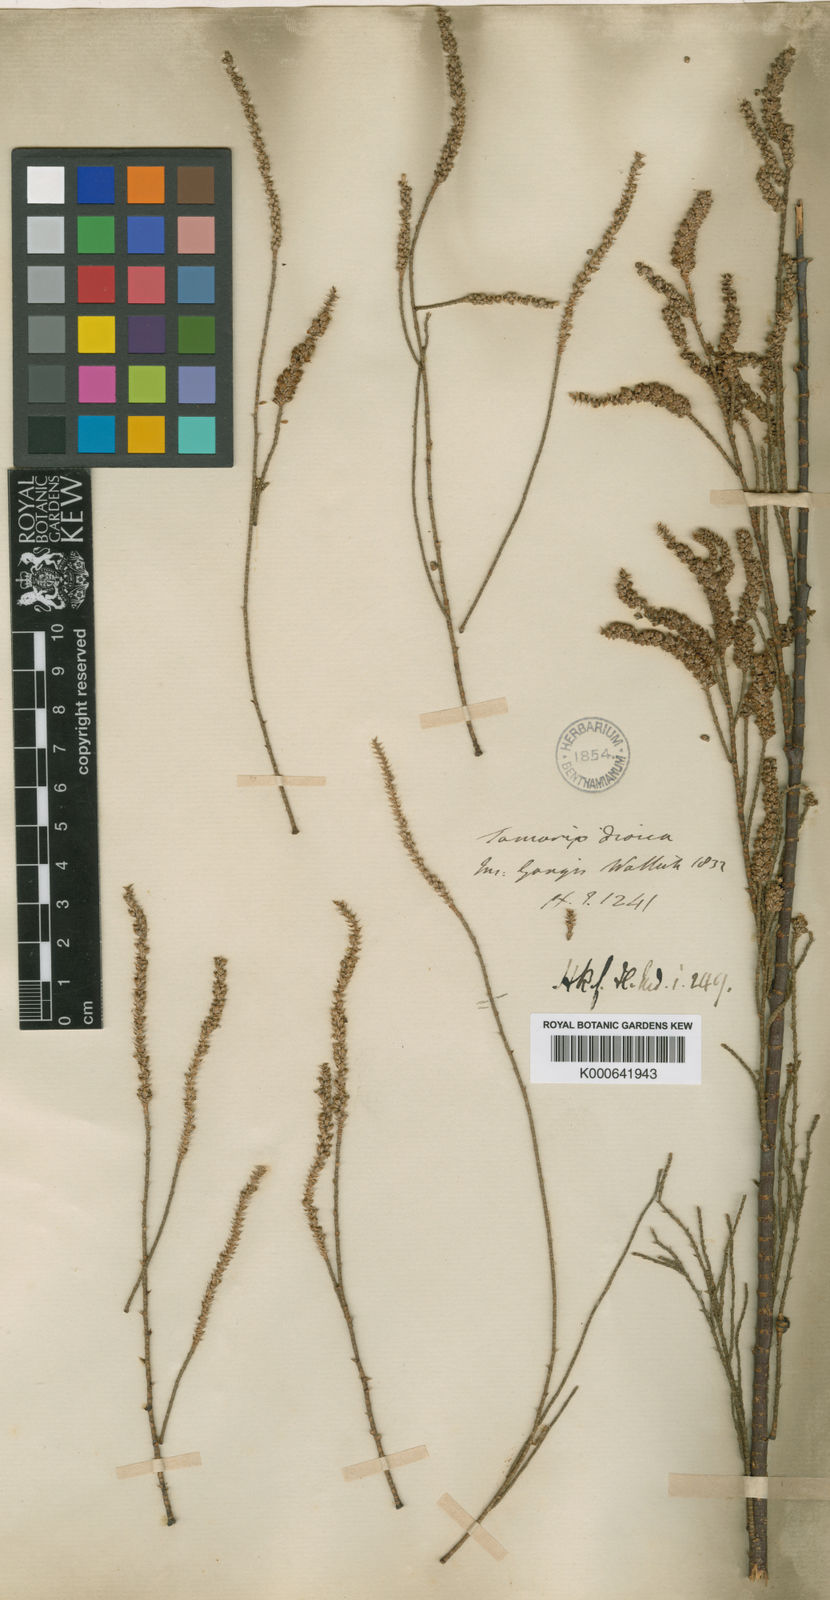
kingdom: Plantae
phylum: Tracheophyta
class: Magnoliopsida
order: Caryophyllales
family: Tamaricaceae
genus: Tamarix
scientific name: Tamarix dioica
